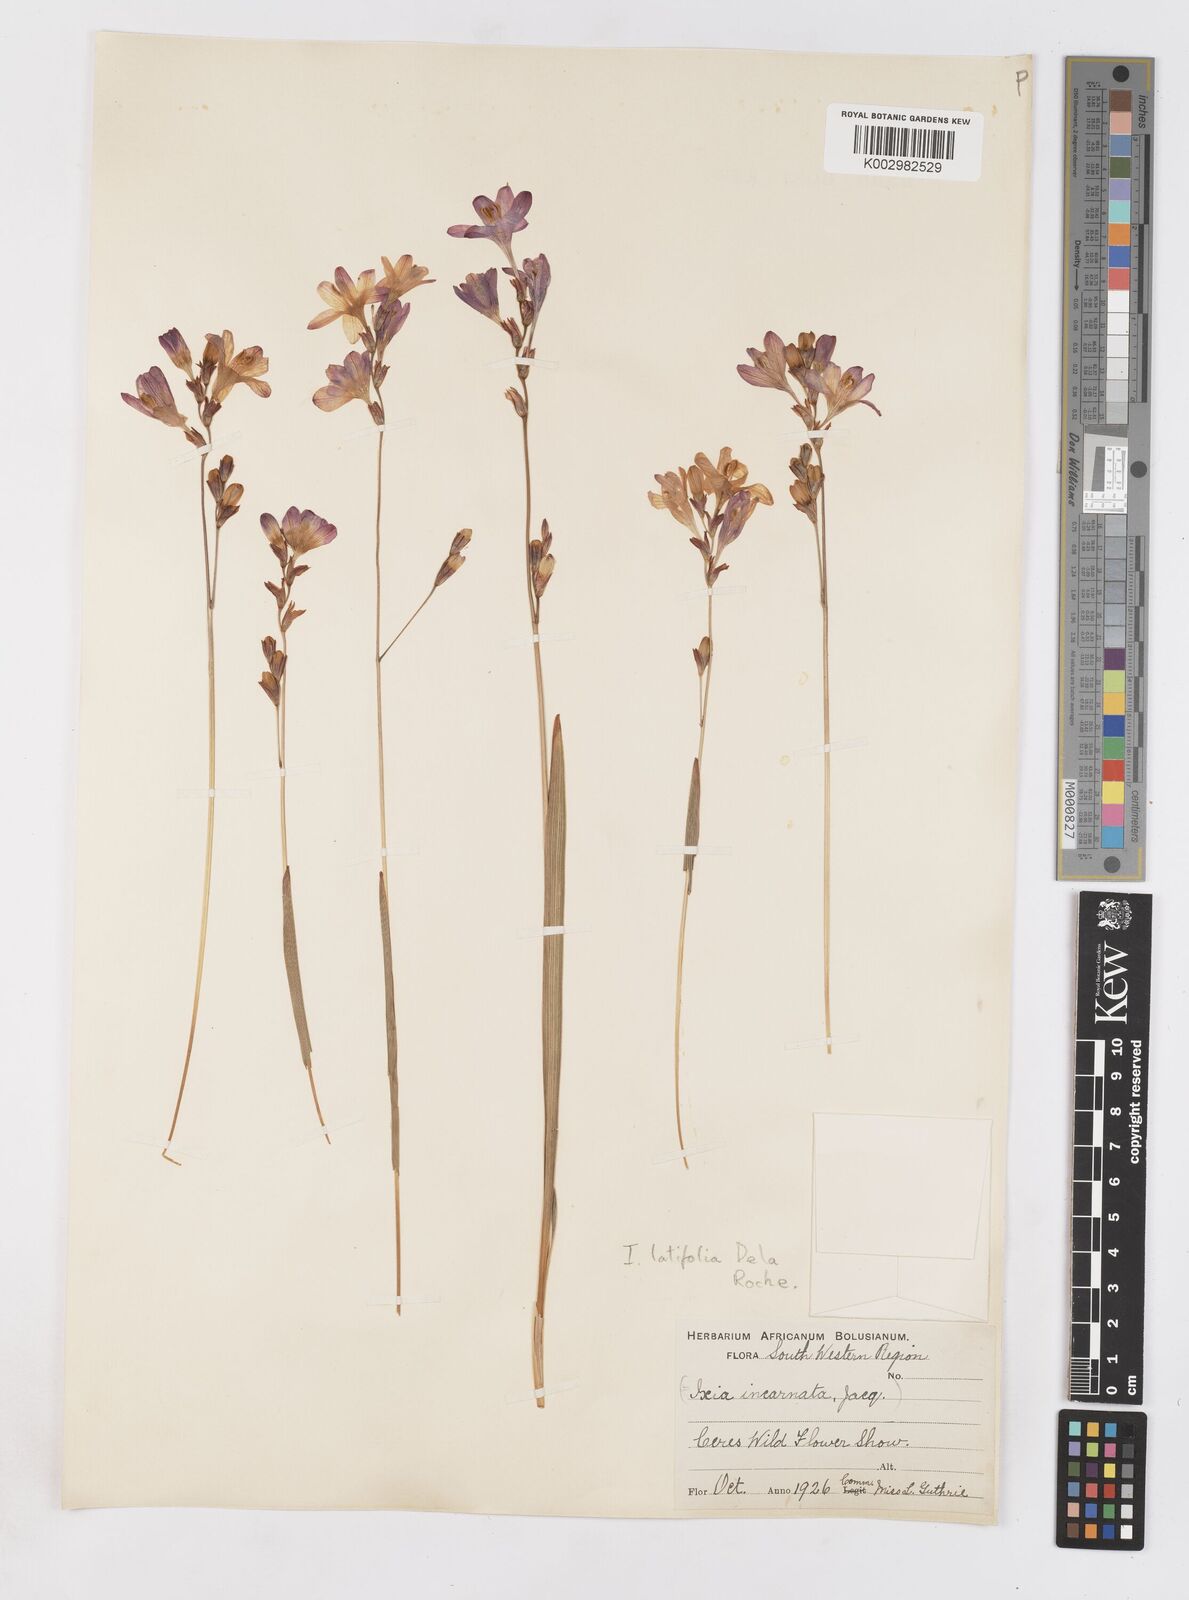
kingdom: Plantae
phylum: Tracheophyta
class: Liliopsida
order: Asparagales
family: Iridaceae
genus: Ixia
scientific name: Ixia latifolia
